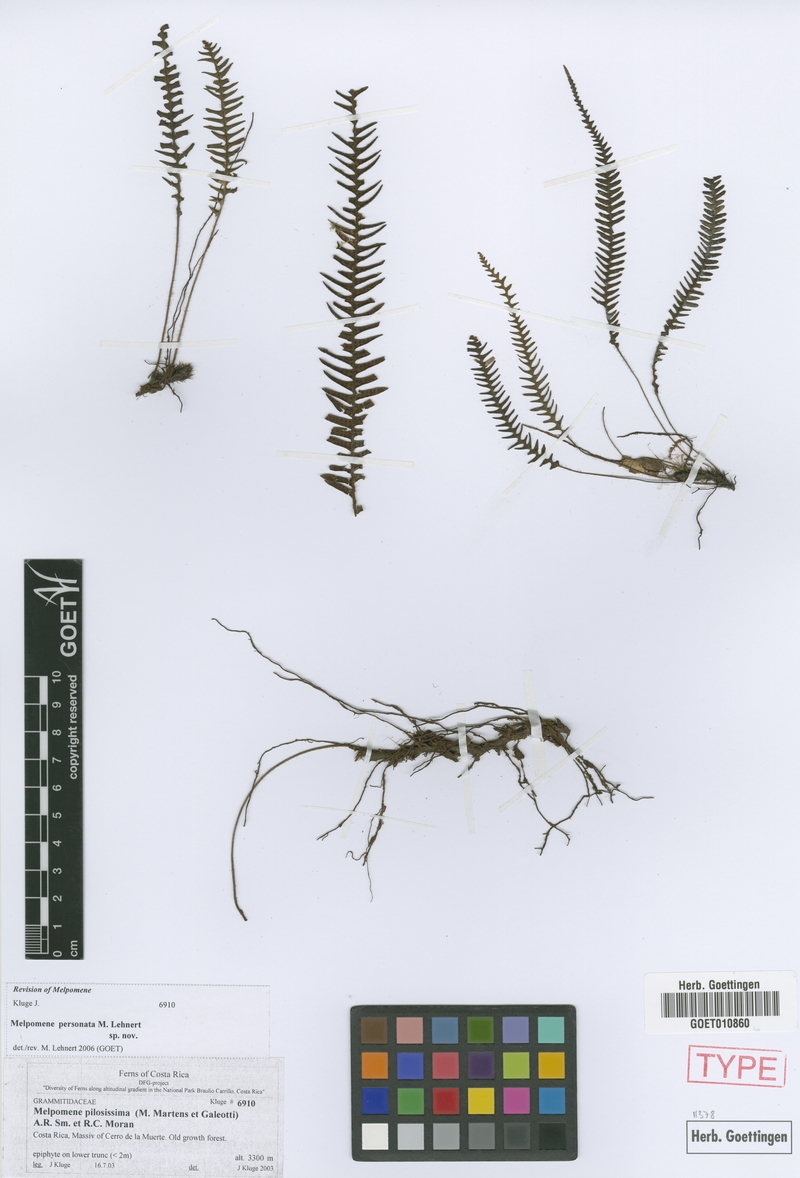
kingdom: Plantae
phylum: Tracheophyta
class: Polypodiopsida
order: Polypodiales
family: Polypodiaceae
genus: Melpomene
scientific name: Melpomene personata
